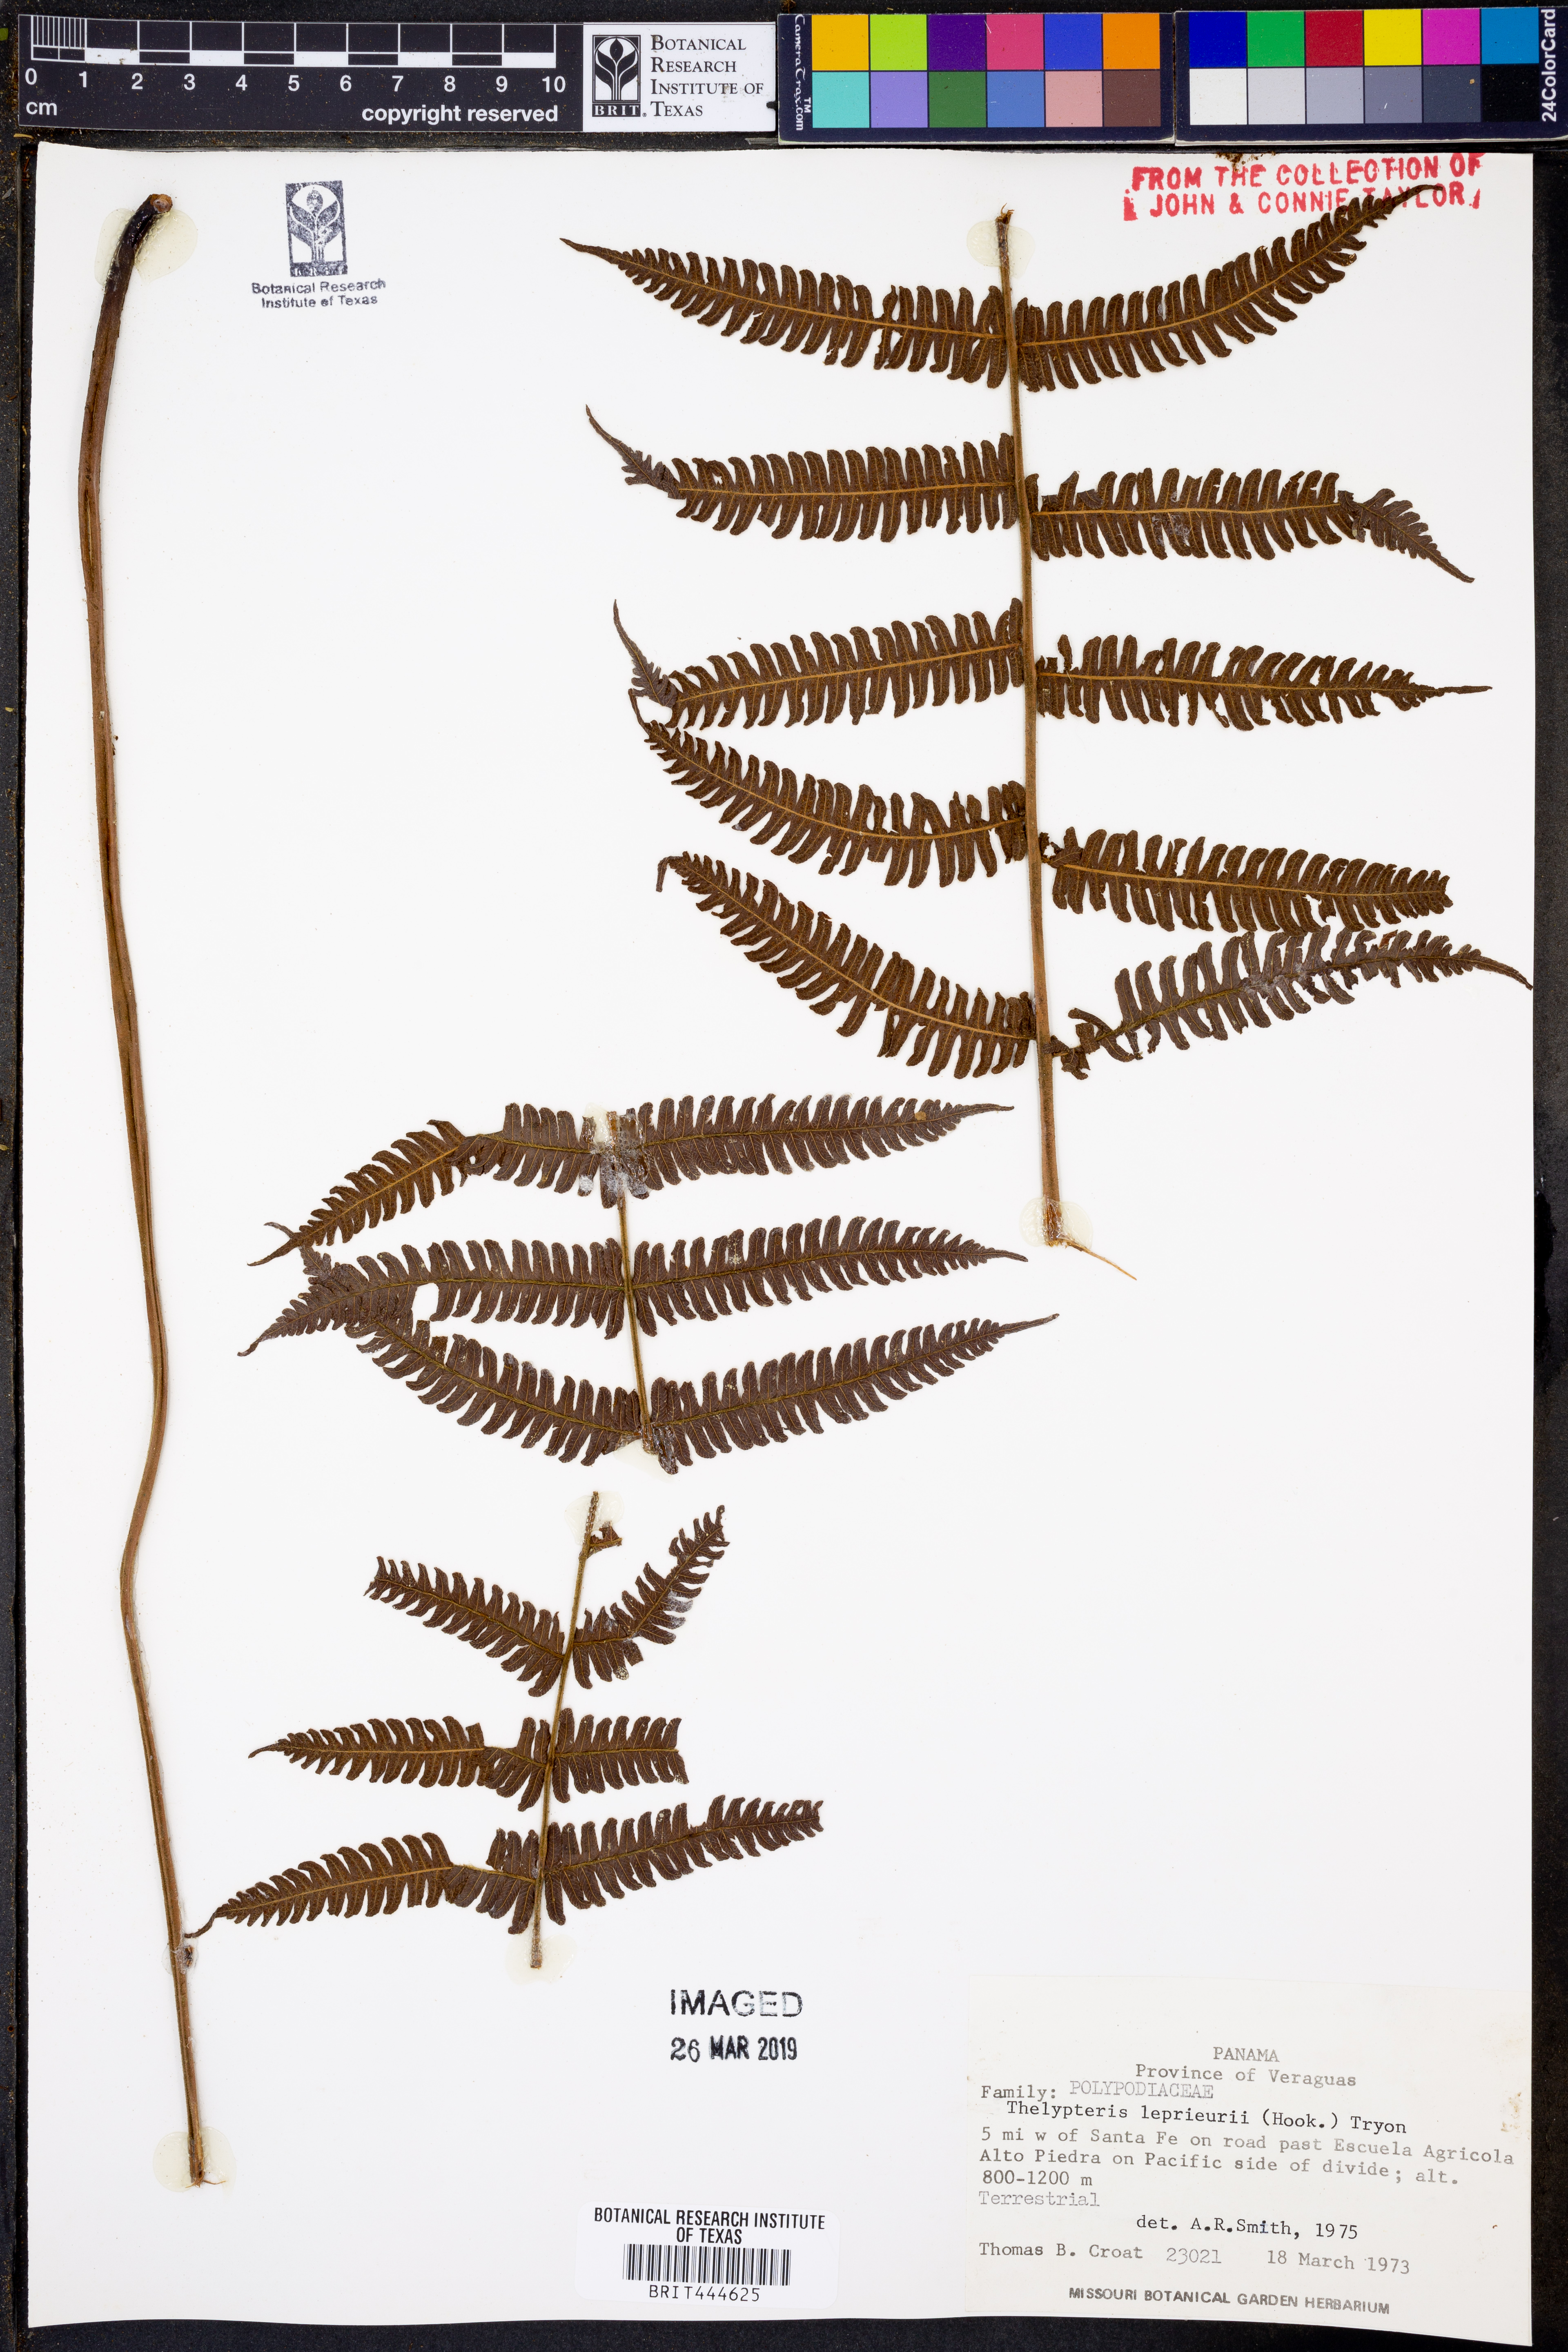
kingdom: Plantae
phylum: Tracheophyta
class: Polypodiopsida
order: Polypodiales
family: Thelypteridaceae
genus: Steiropteris
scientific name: Steiropteris leprieurii
